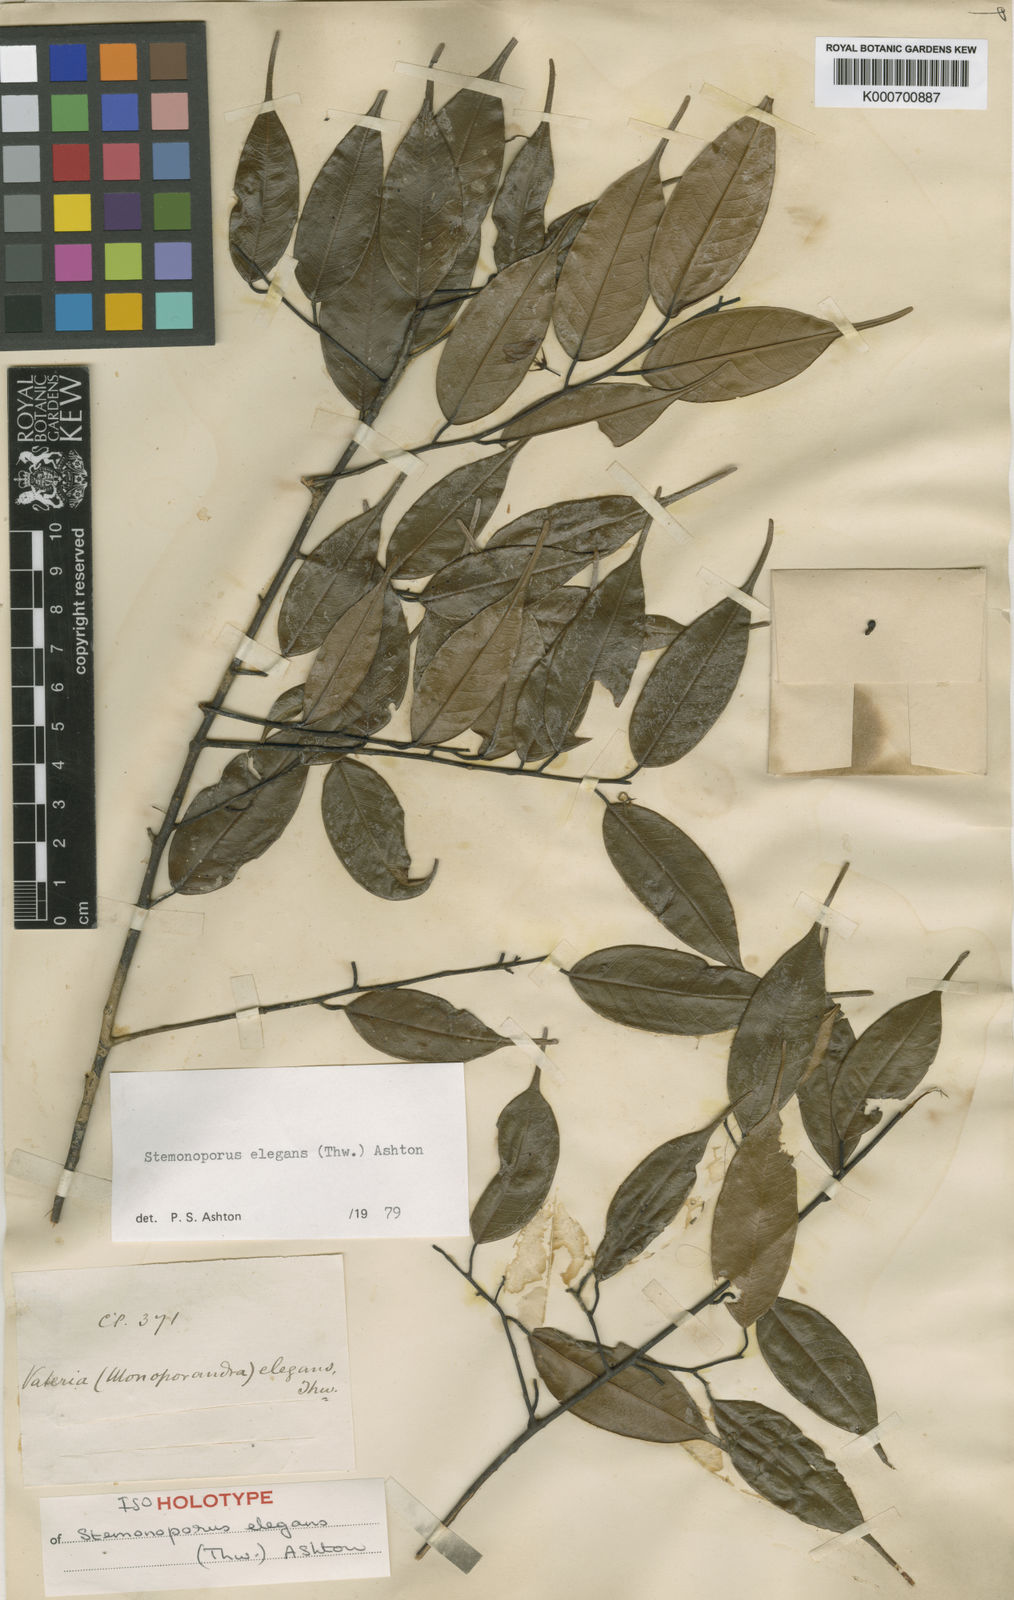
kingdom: Plantae
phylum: Tracheophyta
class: Magnoliopsida
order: Malvales
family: Dipterocarpaceae
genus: Stemonoporus
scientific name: Stemonoporus elegans
